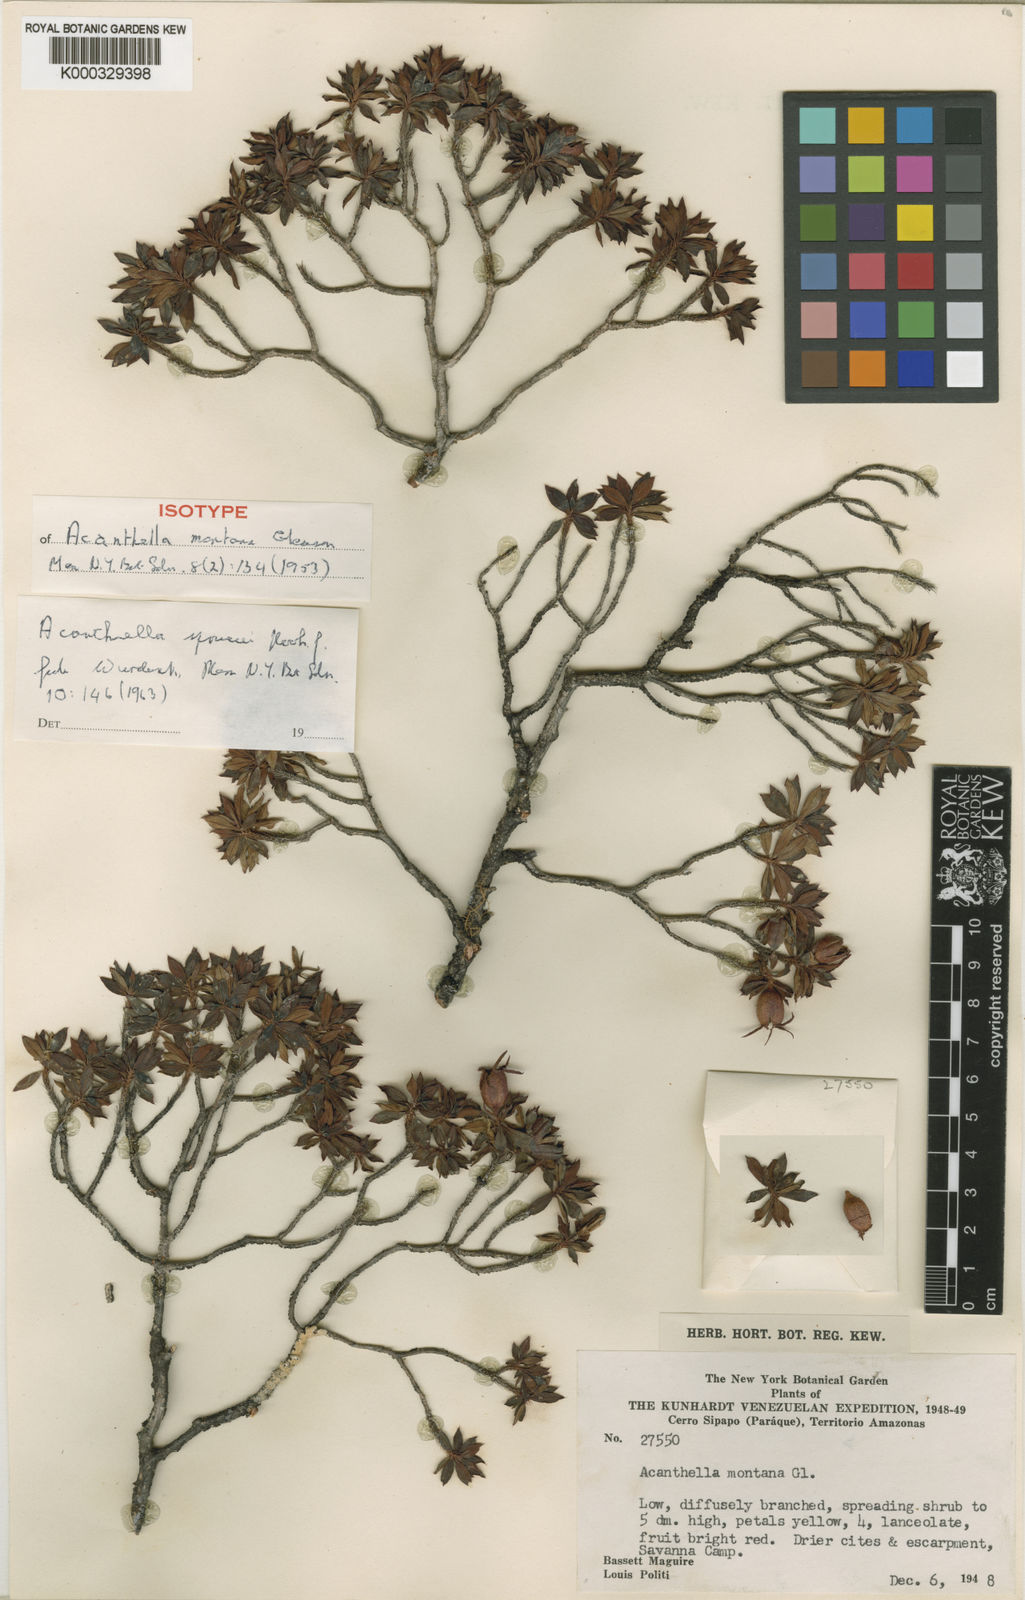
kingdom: Plantae
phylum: Tracheophyta
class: Magnoliopsida
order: Myrtales
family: Melastomataceae
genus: Acanthella
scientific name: Acanthella sprucei
